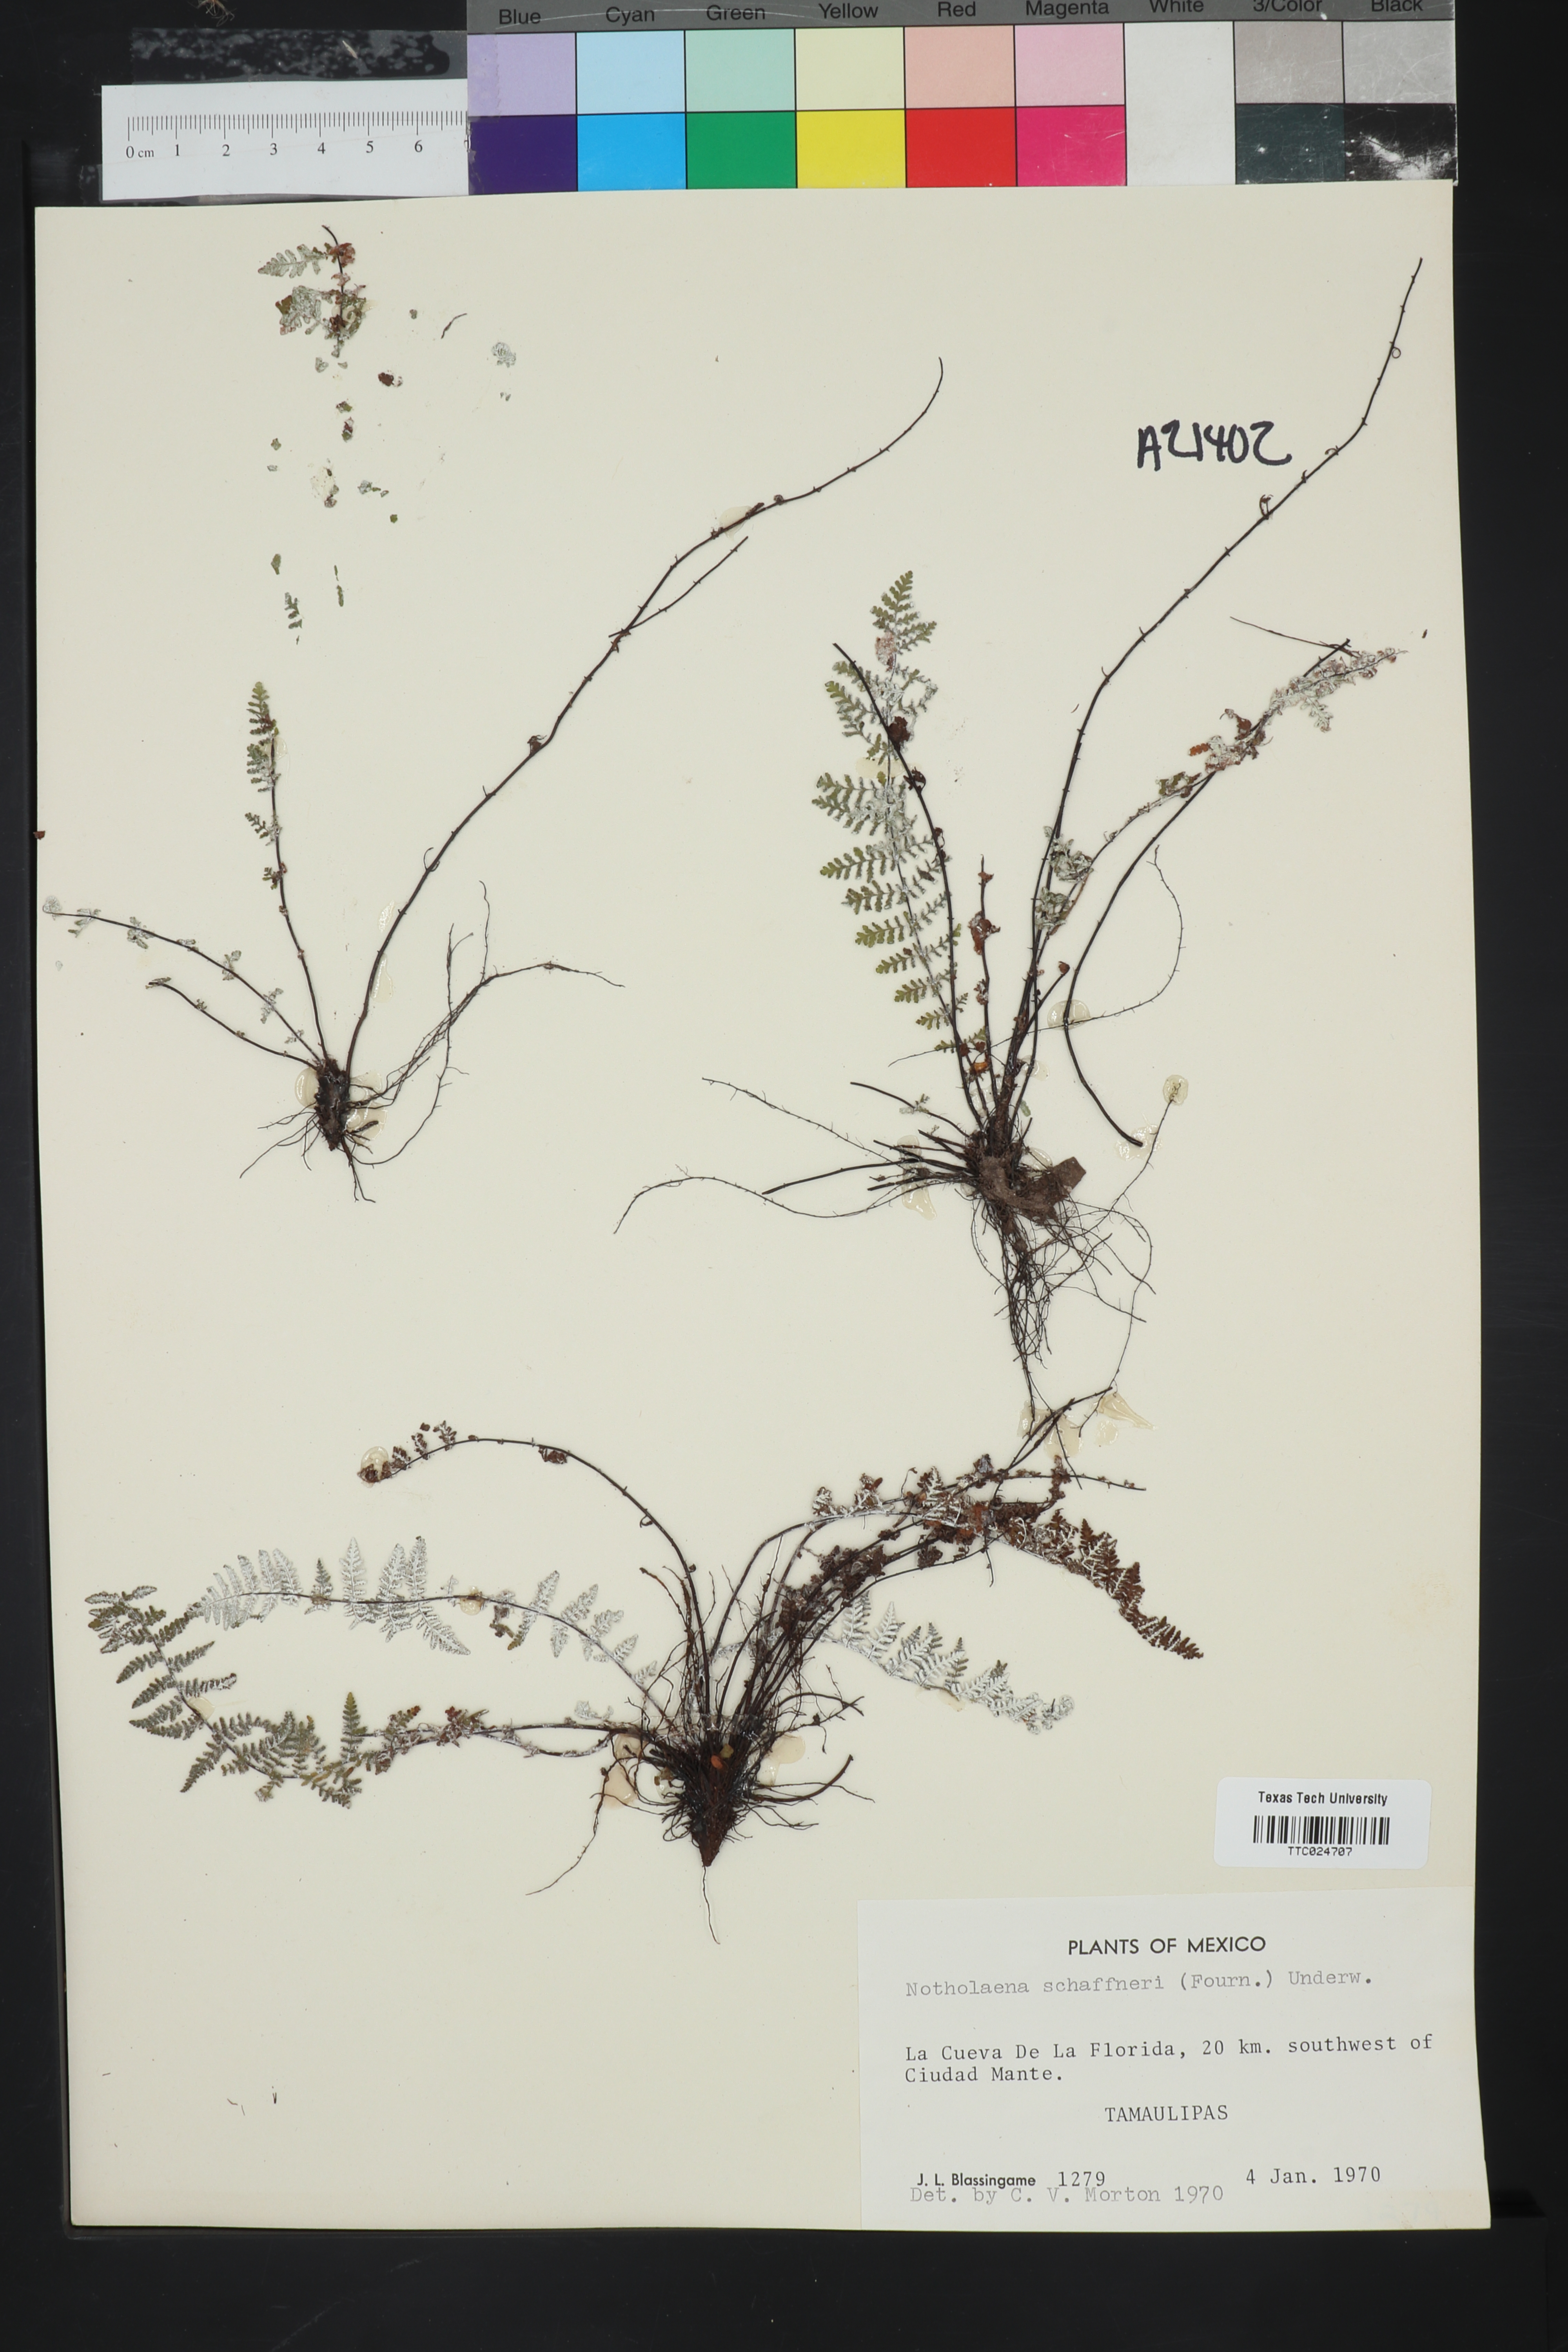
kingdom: Plantae
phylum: Tracheophyta
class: Polypodiopsida
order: Polypodiales
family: Pteridaceae
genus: Notholaena
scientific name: Notholaena schaffneri
